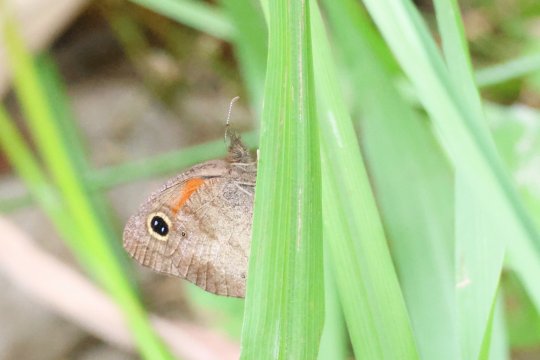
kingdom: Animalia
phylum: Arthropoda
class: Insecta
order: Lepidoptera
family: Nymphalidae
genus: Cassionympha
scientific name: Cassionympha cassius
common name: Rainforest Brown
